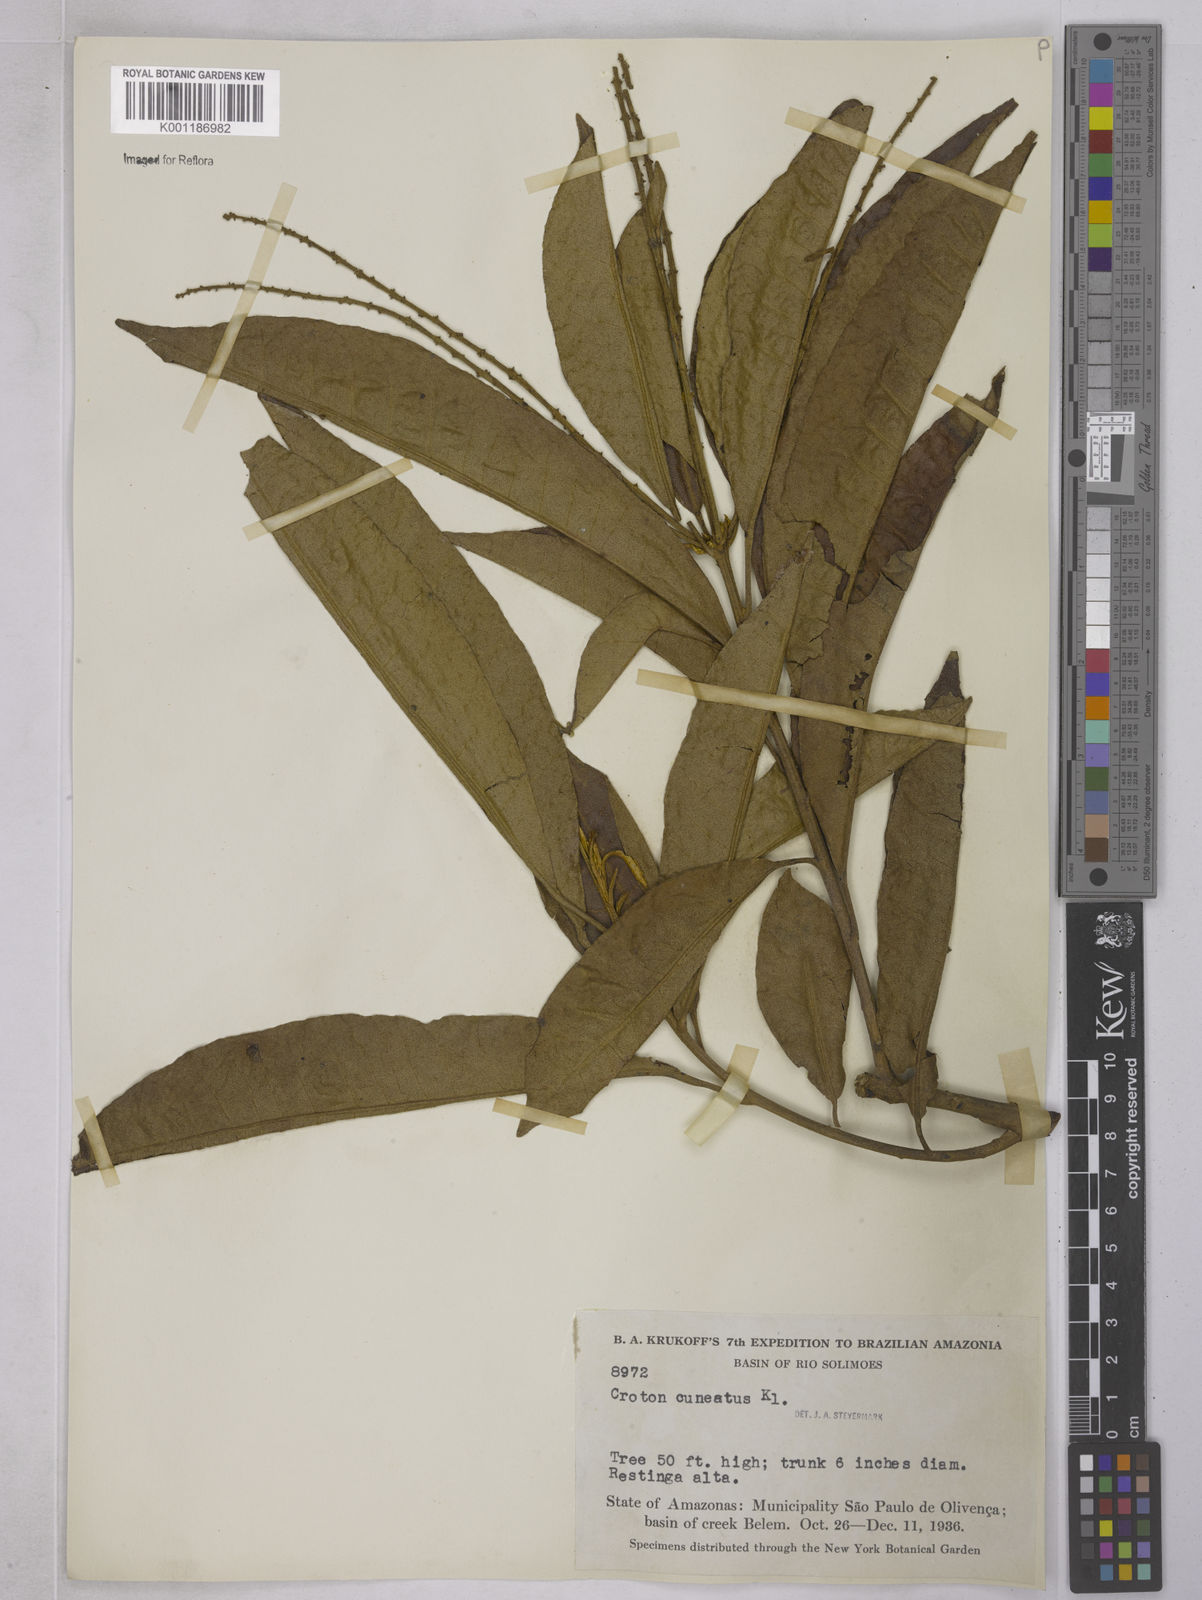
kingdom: Plantae
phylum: Tracheophyta
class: Magnoliopsida
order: Malpighiales
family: Euphorbiaceae
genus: Croton
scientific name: Croton
